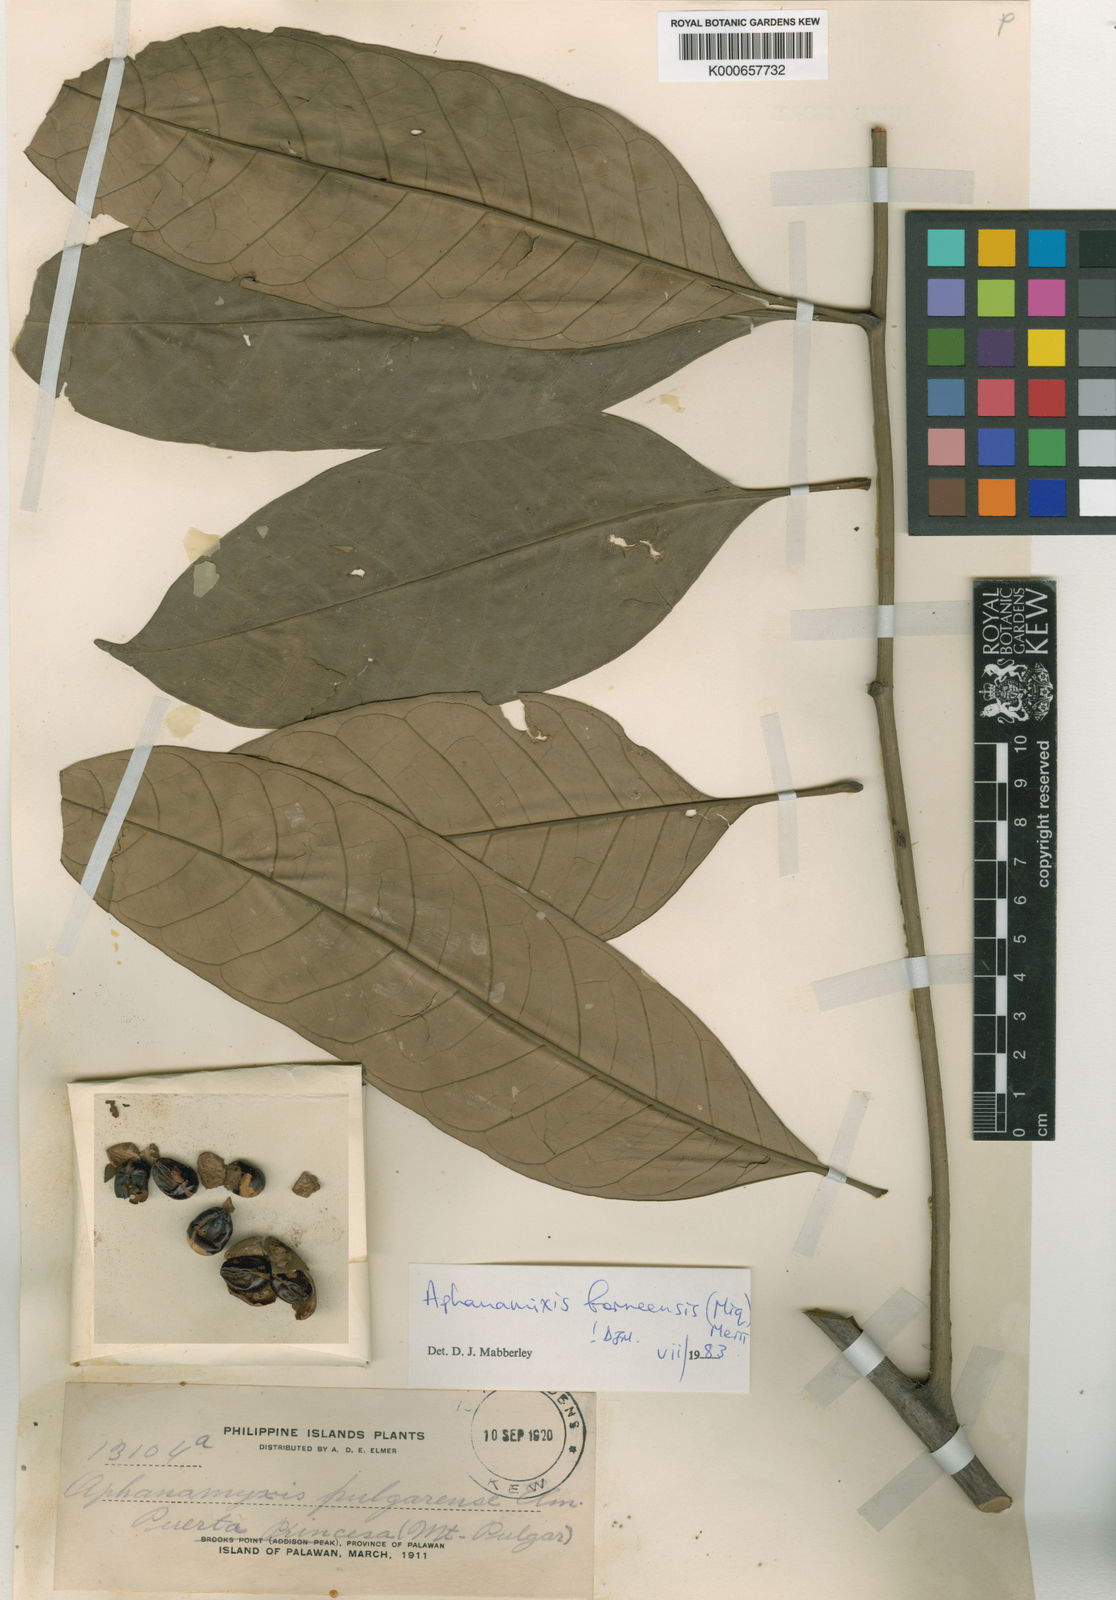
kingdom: Plantae
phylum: Tracheophyta
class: Magnoliopsida
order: Sapindales
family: Meliaceae
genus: Aphanamixis
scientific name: Aphanamixis borneensis
